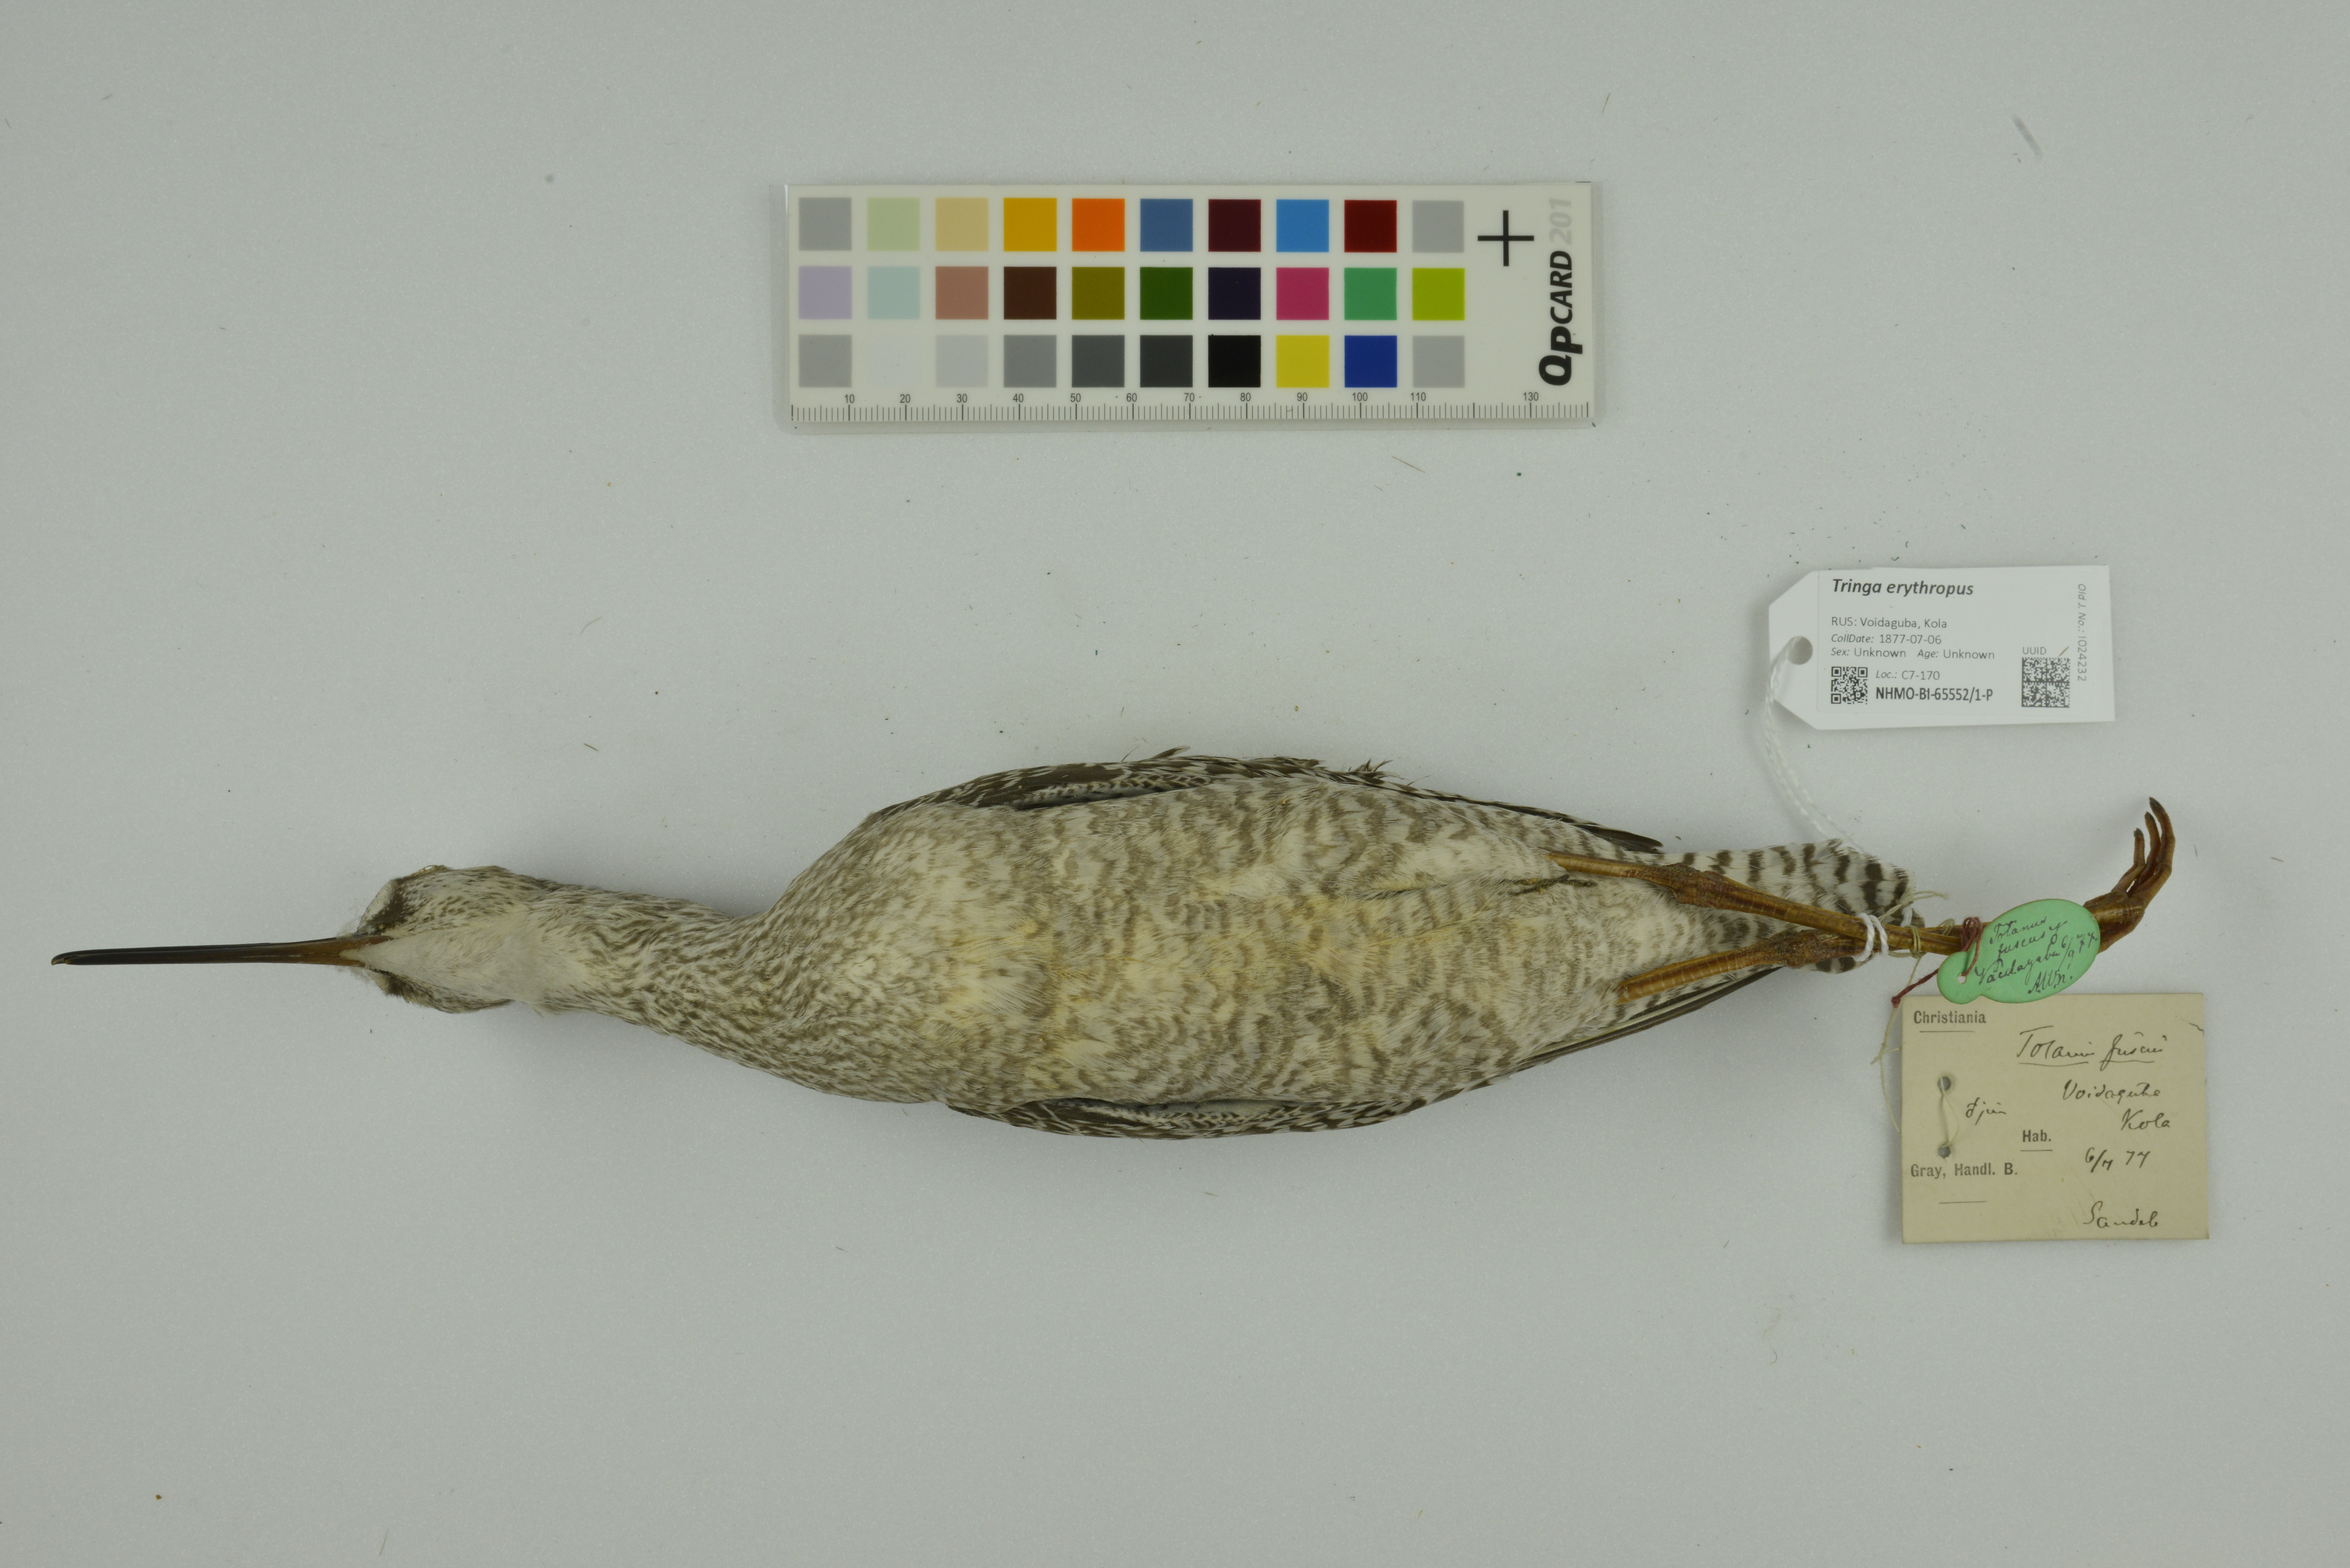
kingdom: Animalia
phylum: Chordata
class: Aves
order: Charadriiformes
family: Scolopacidae
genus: Tringa
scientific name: Tringa erythropus
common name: Spotted redshank
